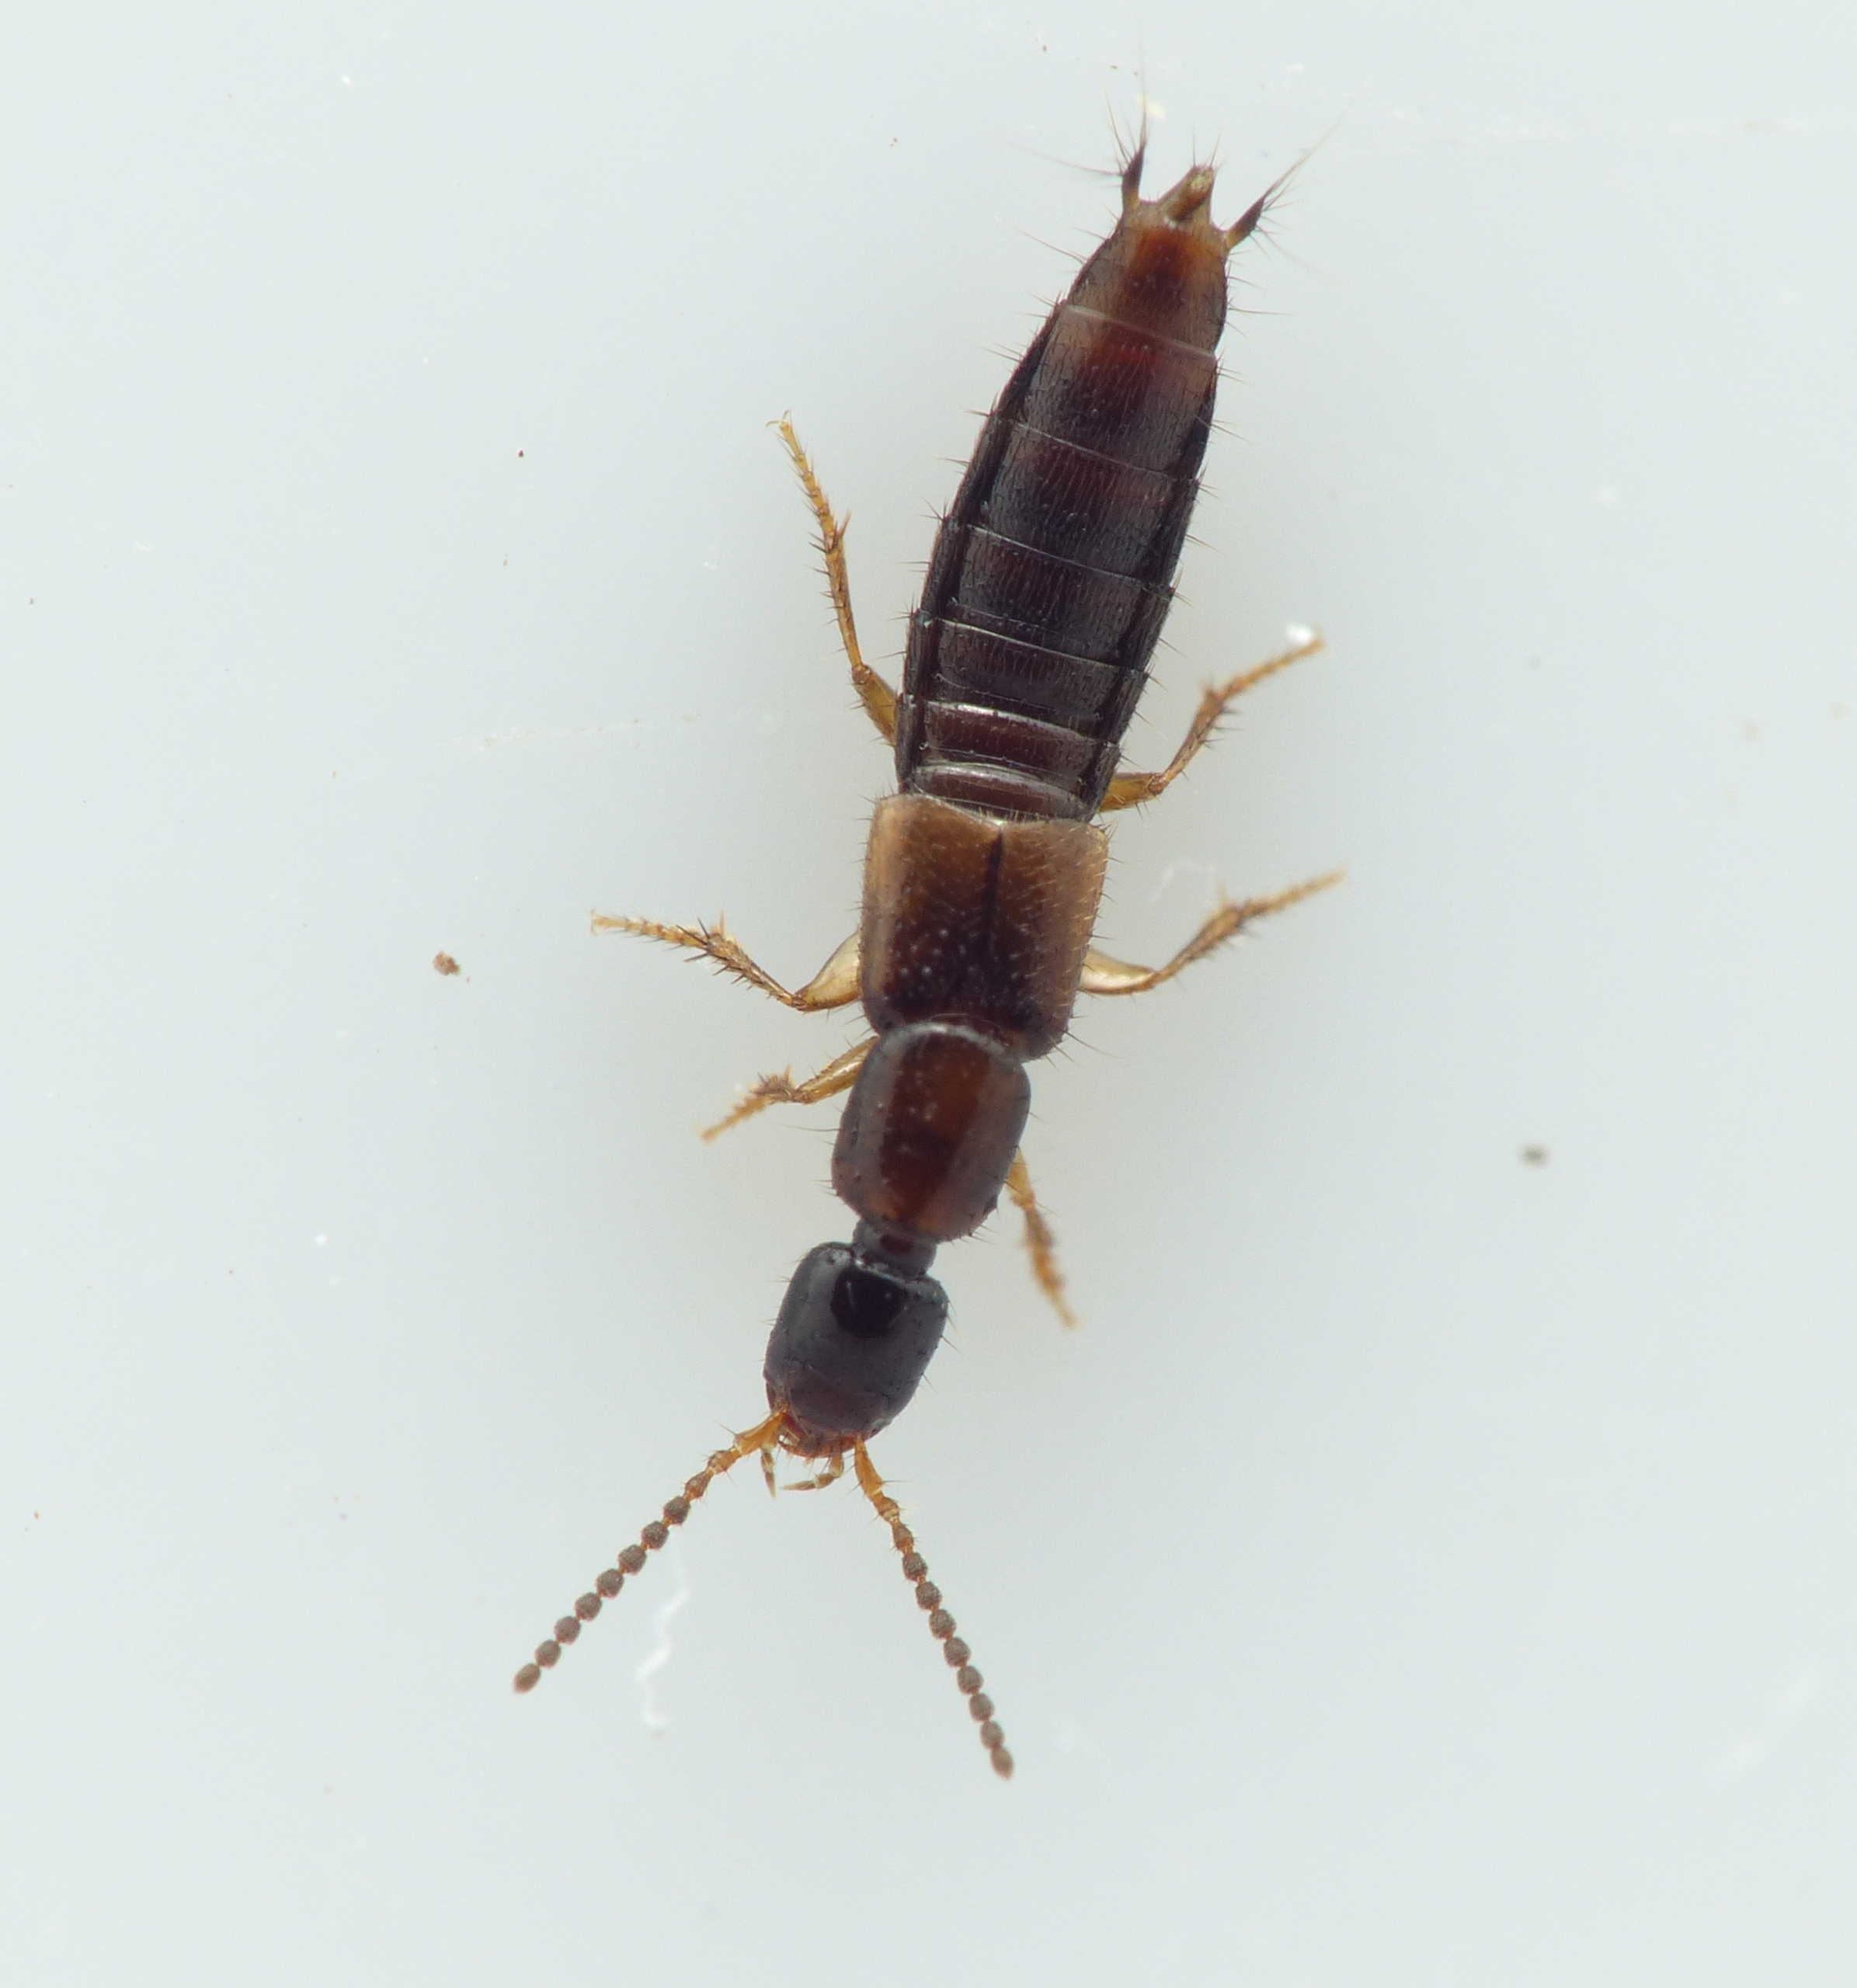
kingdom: Animalia
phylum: Arthropoda
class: Insecta
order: Coleoptera
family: Staphylinidae
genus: Gabronthus
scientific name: Gabronthus thermarum
